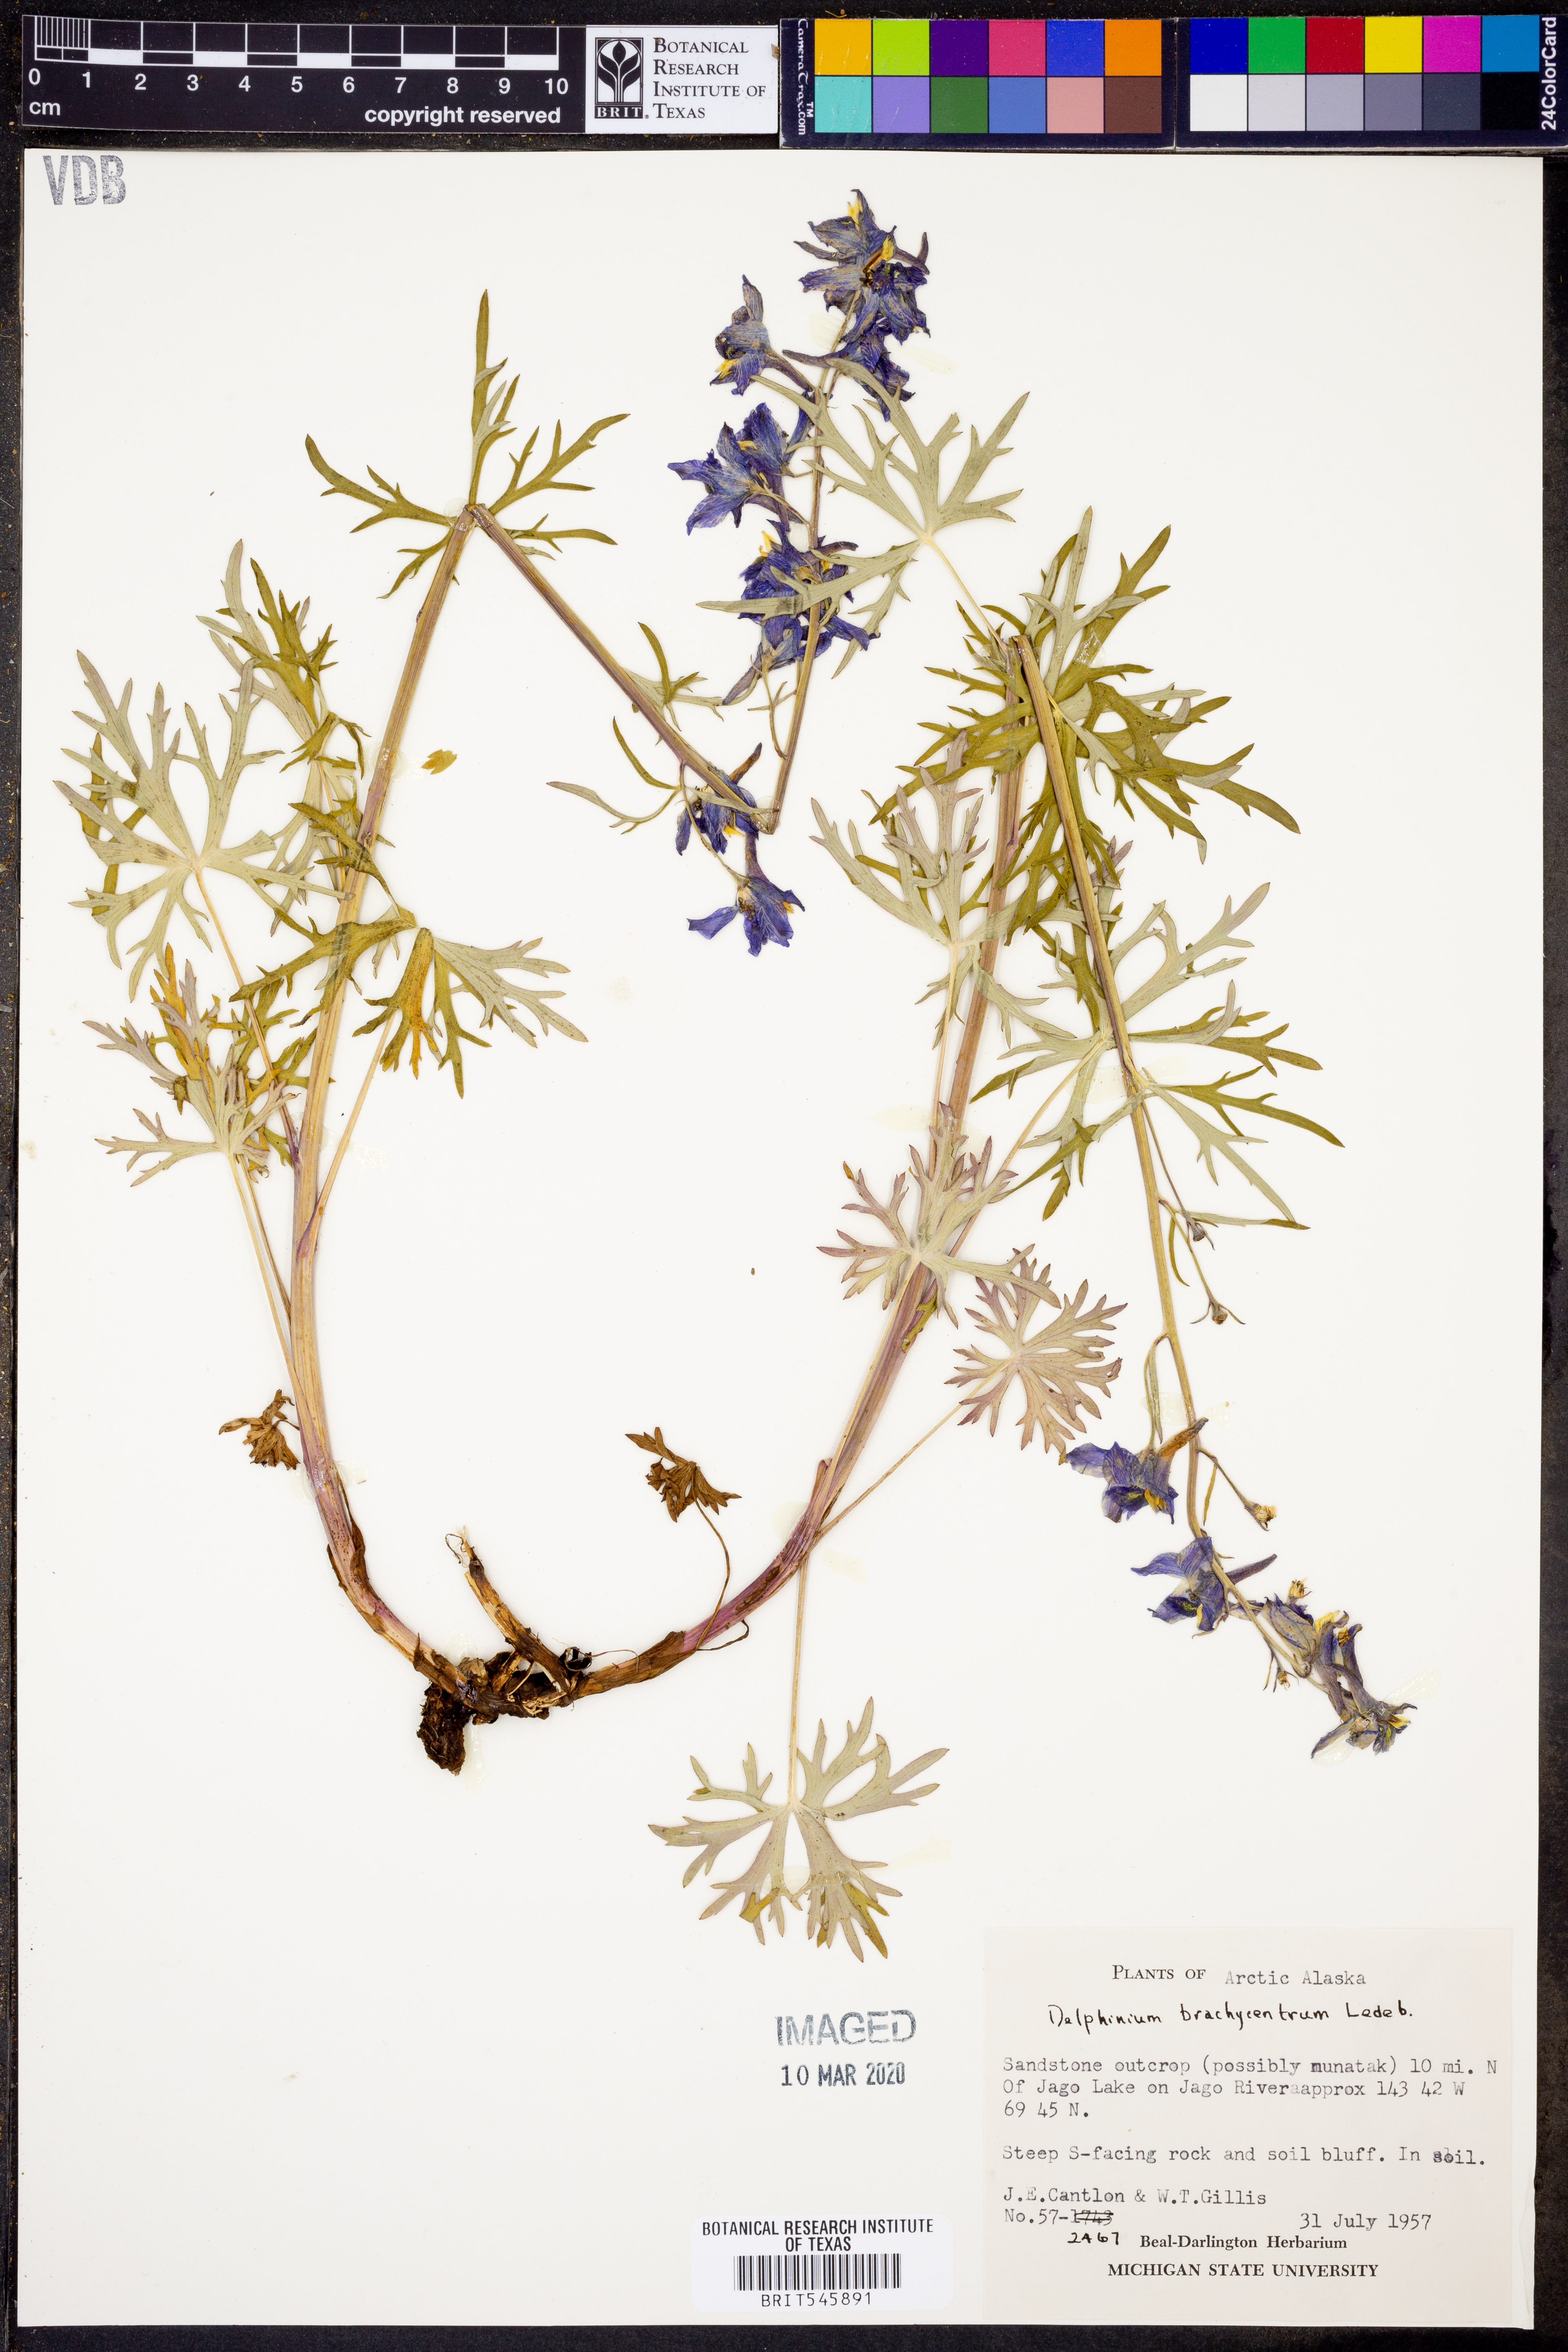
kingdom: Plantae
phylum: Tracheophyta
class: Magnoliopsida
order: Ranunculales
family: Ranunculaceae
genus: Delphinium
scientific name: Delphinium brachycentrum
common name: Arctic larkspur
